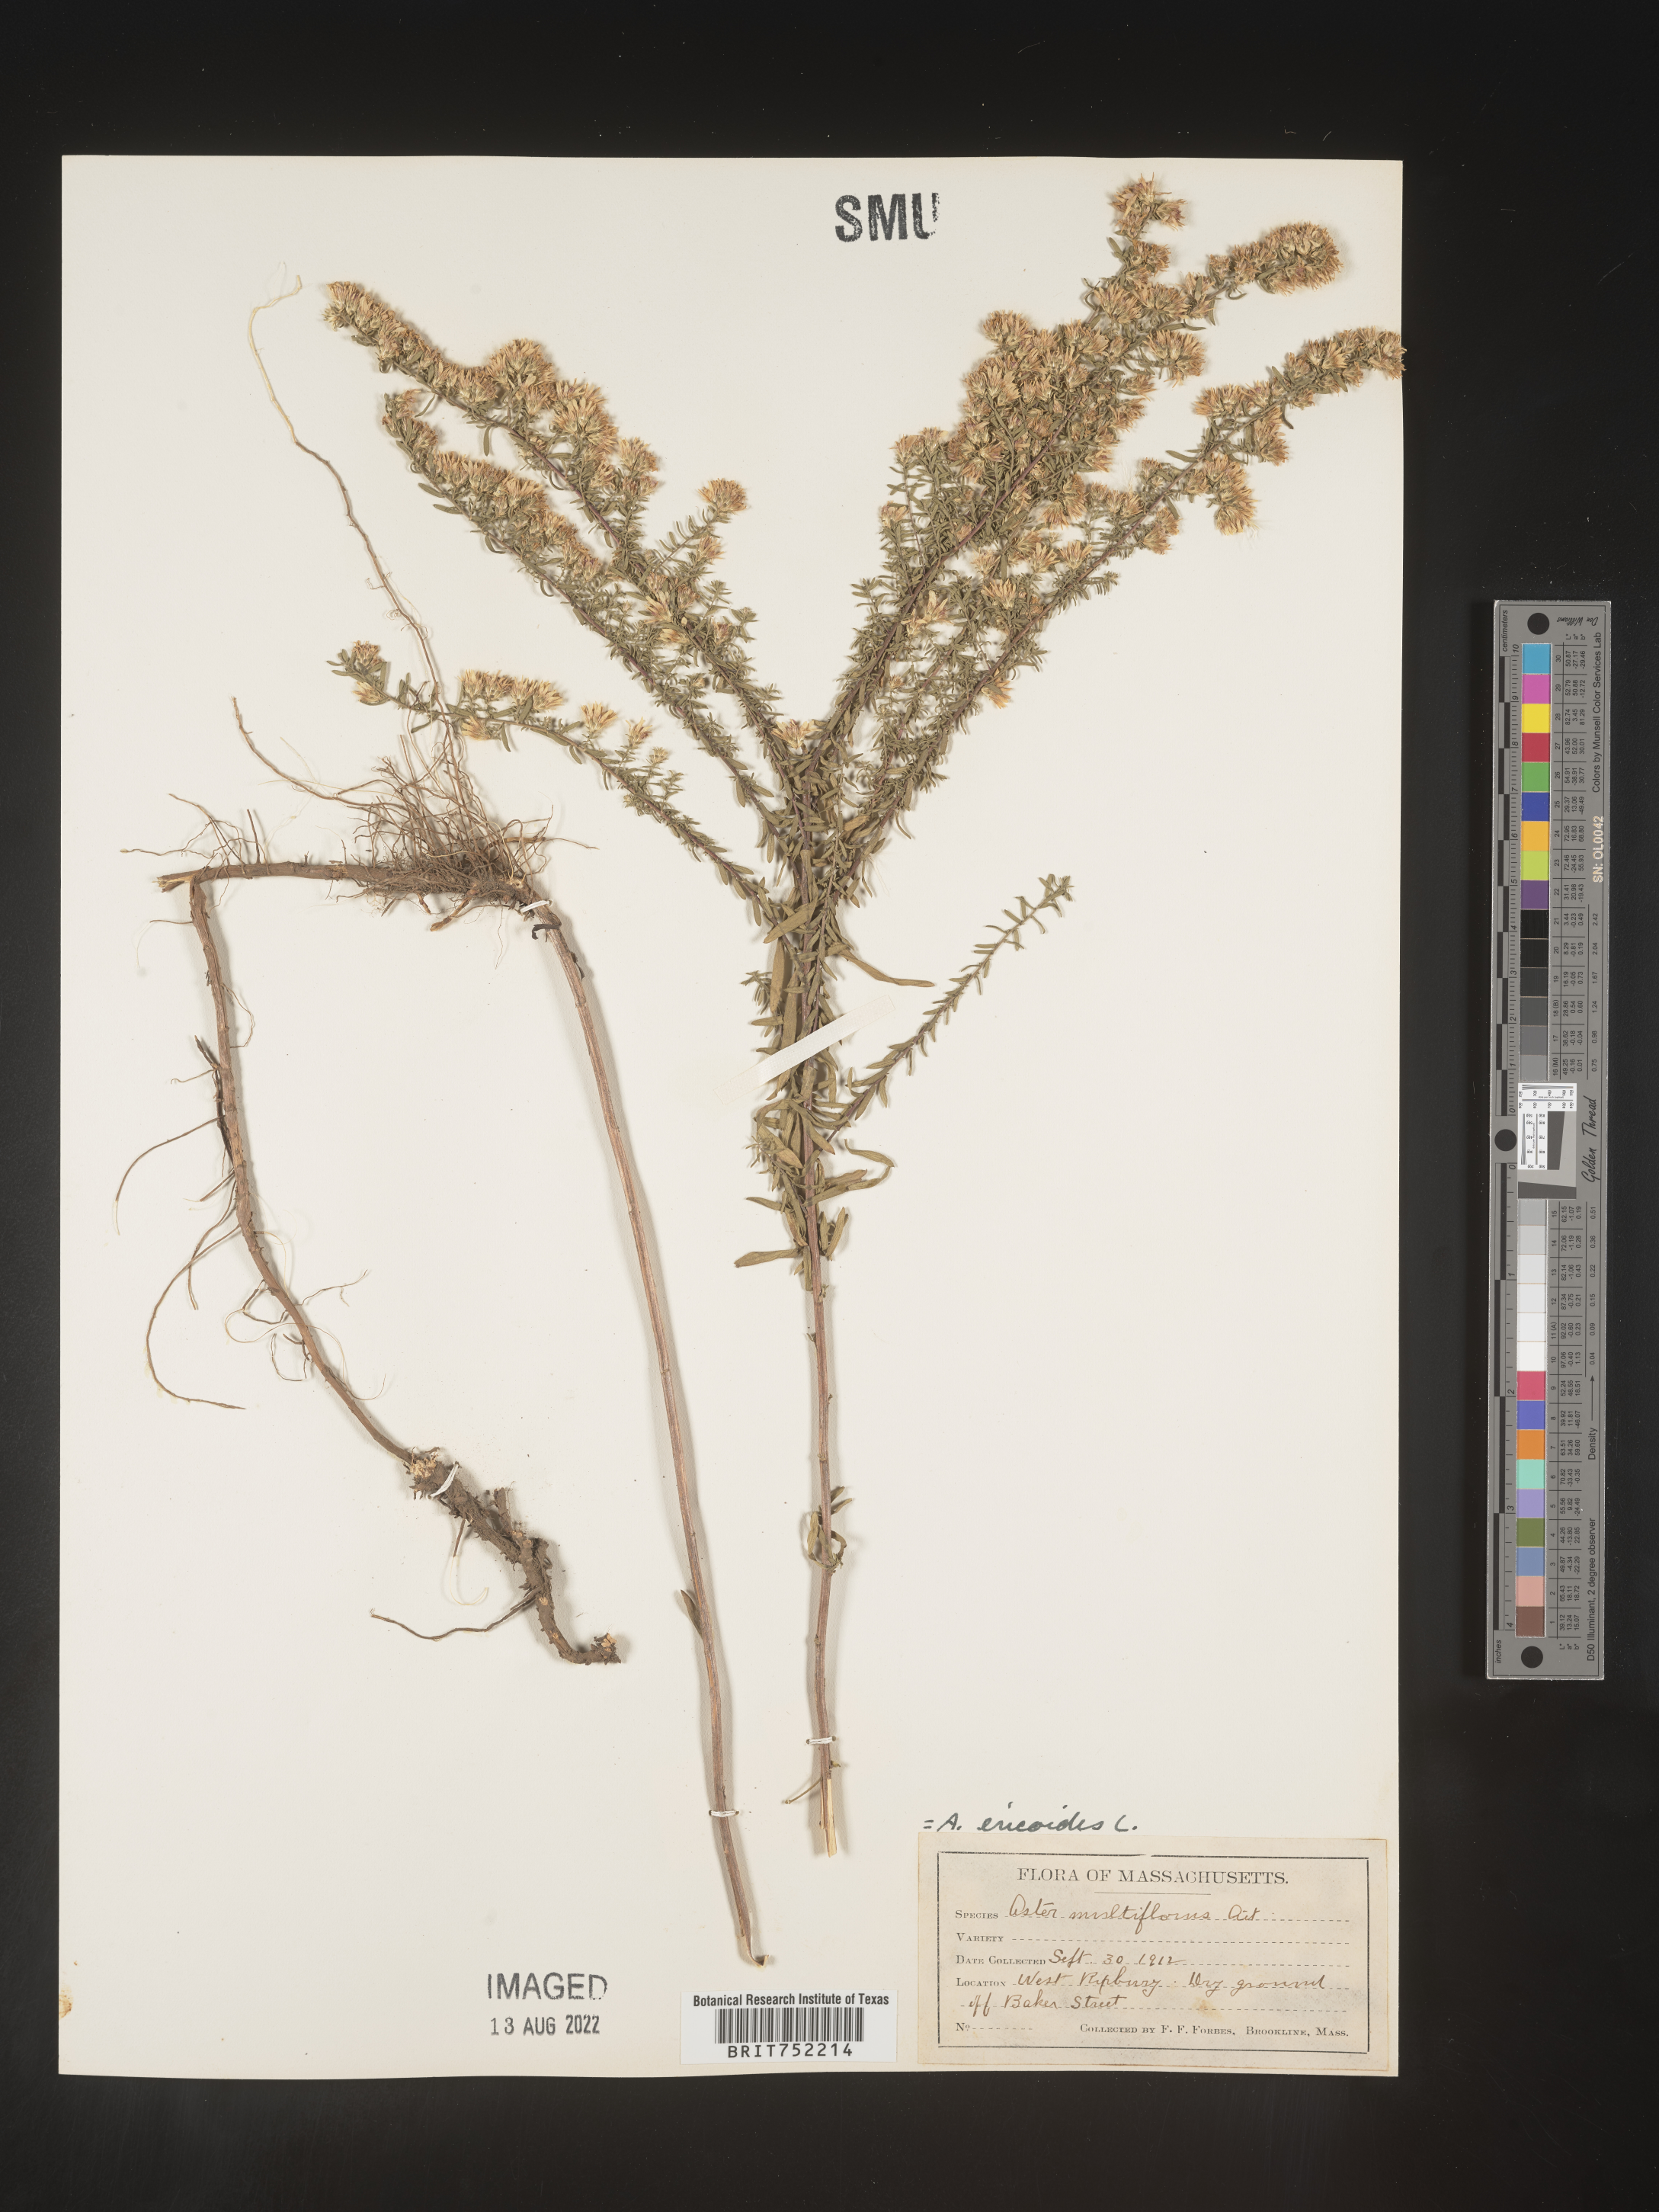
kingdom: Plantae
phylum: Tracheophyta
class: Magnoliopsida
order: Asterales
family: Asteraceae
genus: Symphyotrichum
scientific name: Symphyotrichum ericoides
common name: Heath aster
